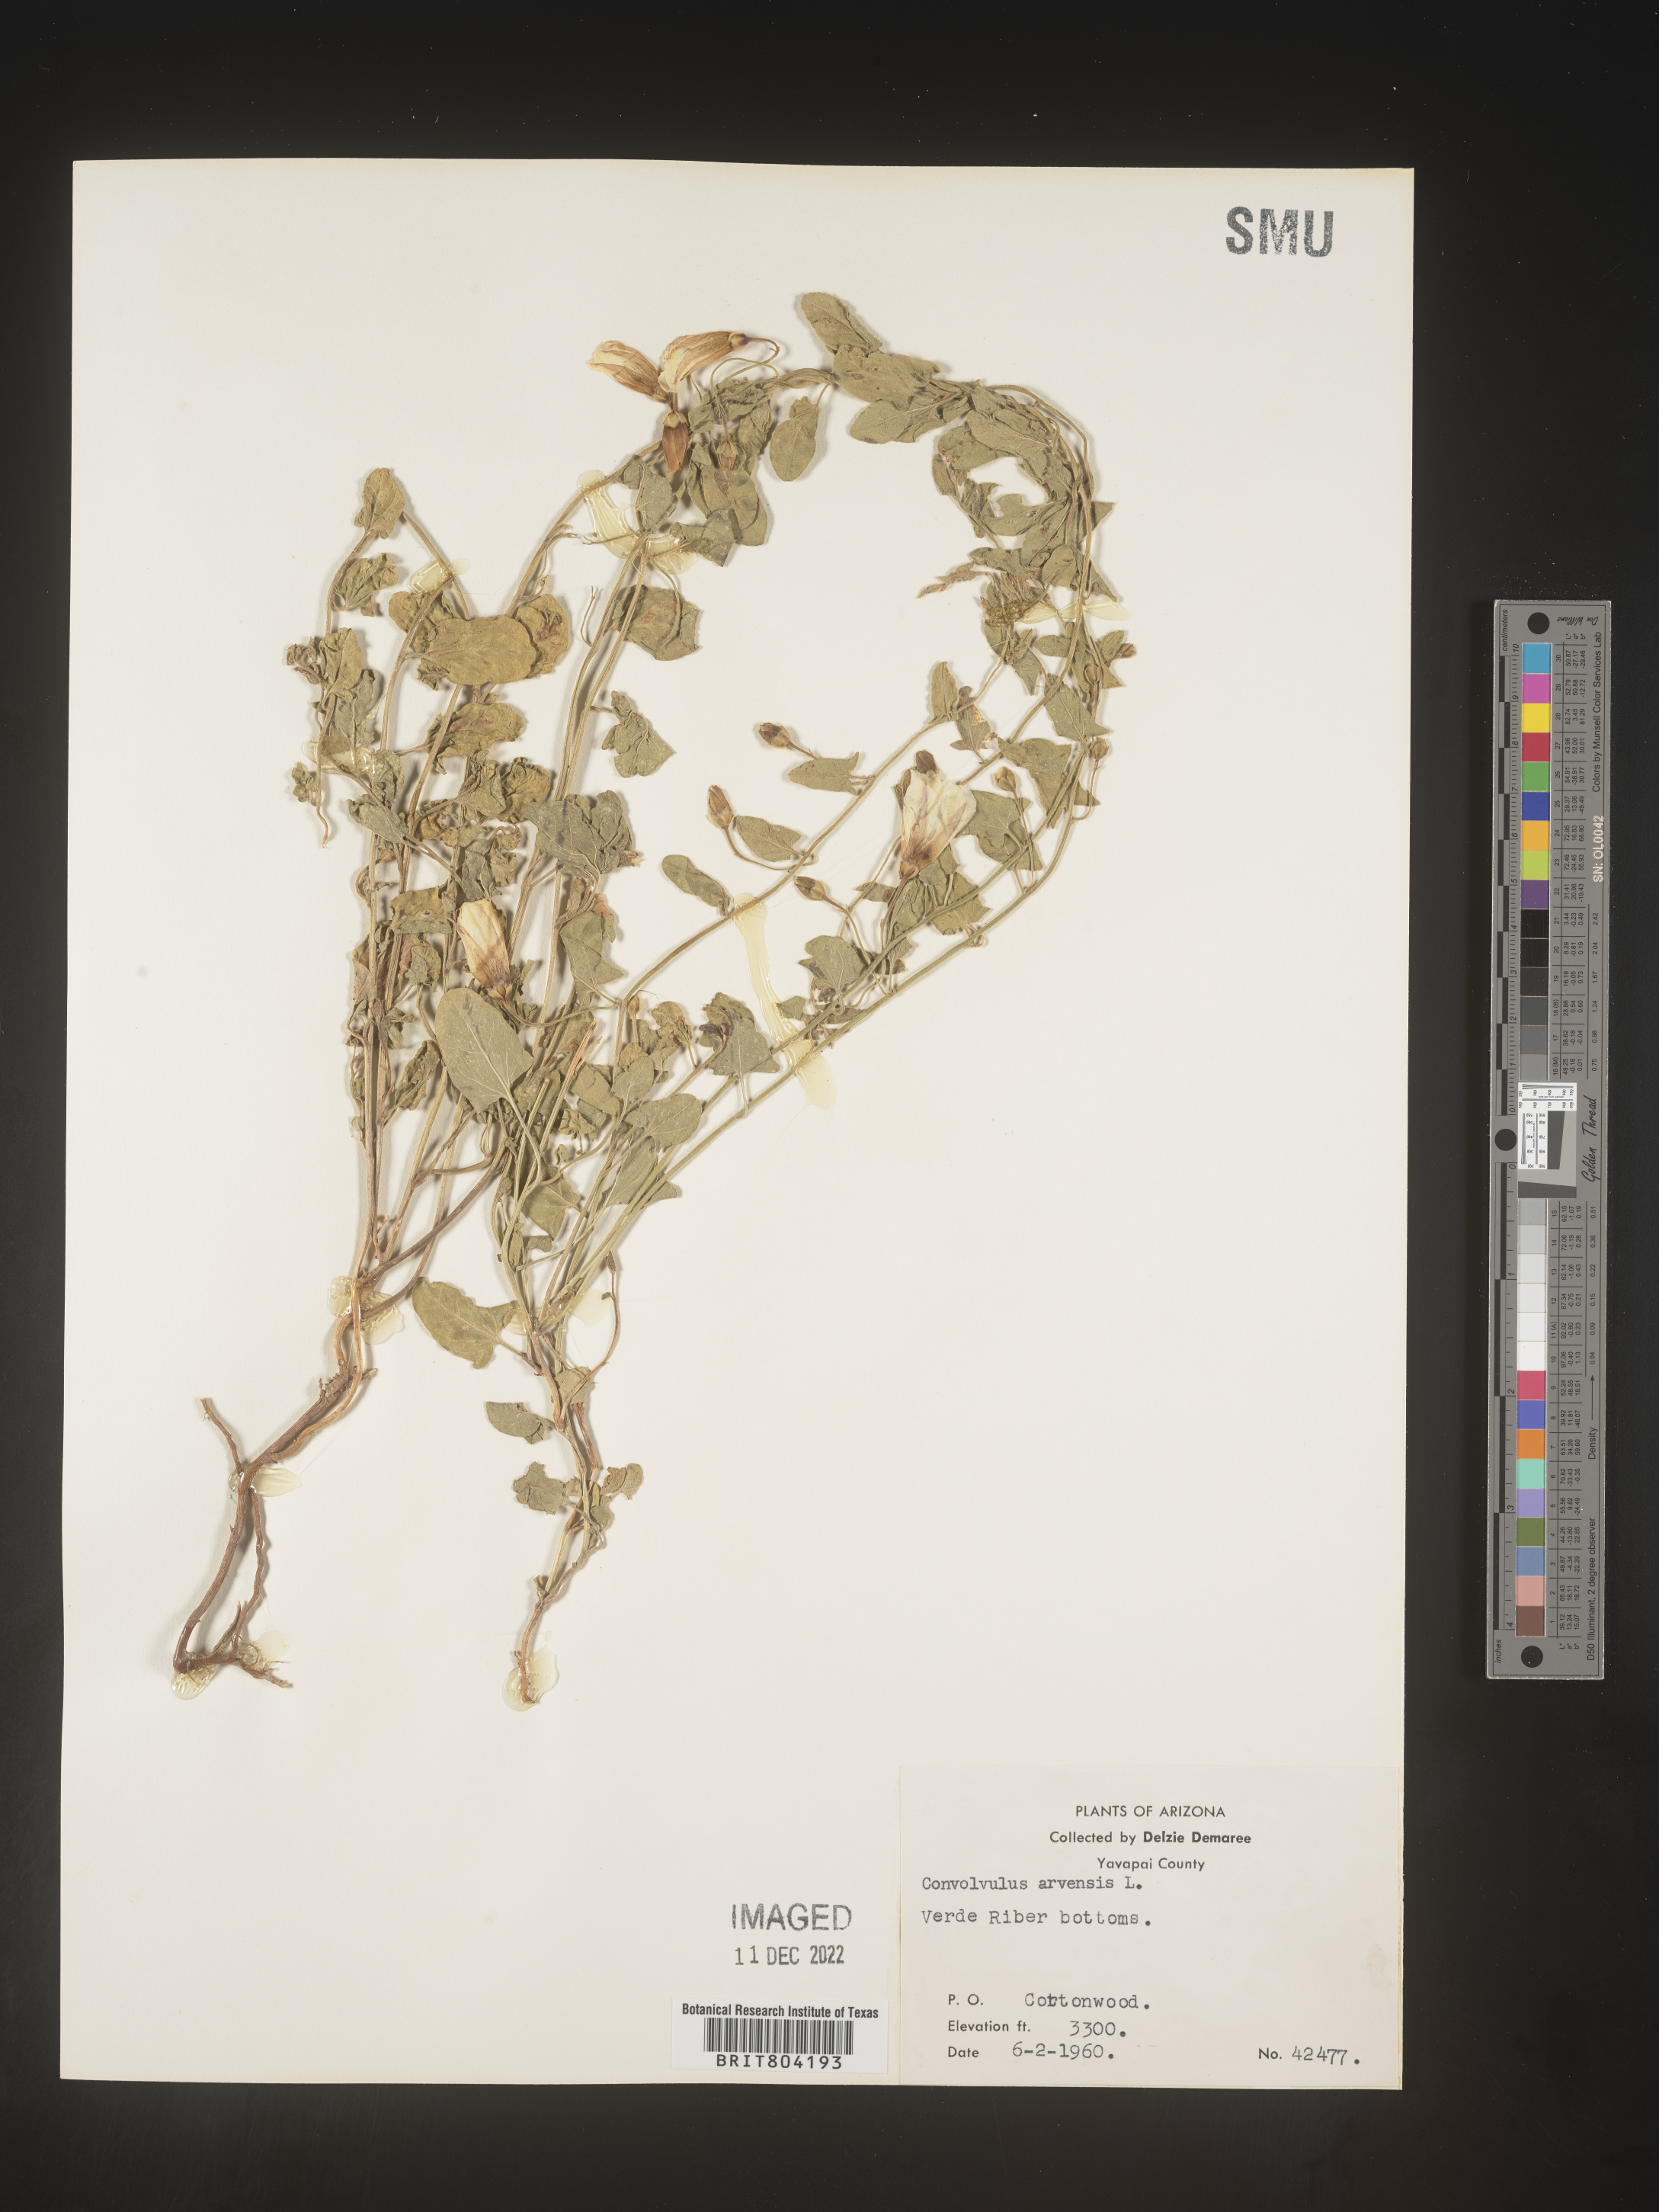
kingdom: Plantae
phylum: Tracheophyta
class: Magnoliopsida
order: Solanales
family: Convolvulaceae
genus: Convolvulus
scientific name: Convolvulus arvensis
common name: Field bindweed
